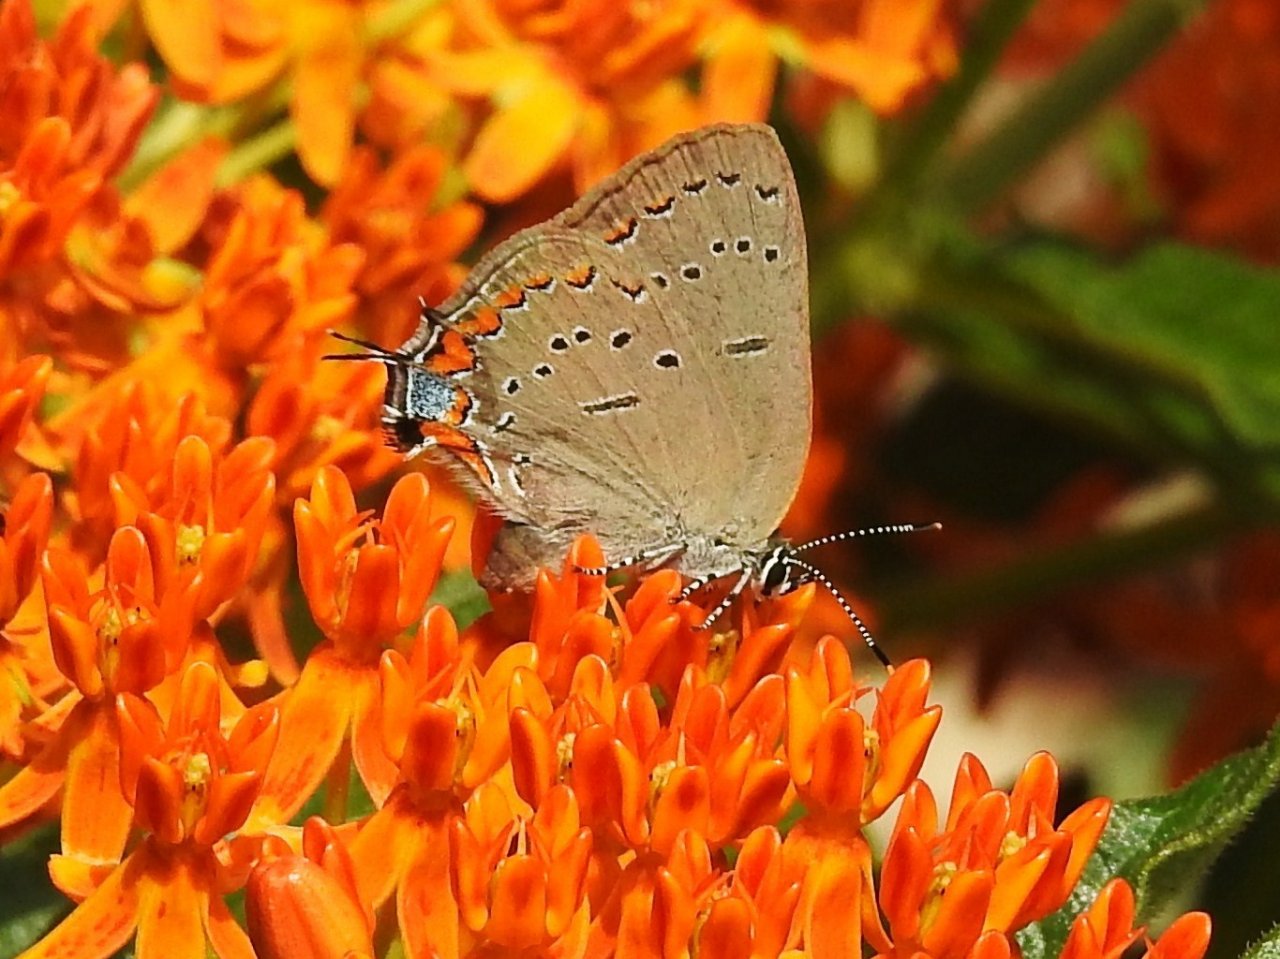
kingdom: Animalia
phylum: Arthropoda
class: Insecta
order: Lepidoptera
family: Lycaenidae
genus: Strymon
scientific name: Strymon acadica
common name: Acadian Hairstreak
